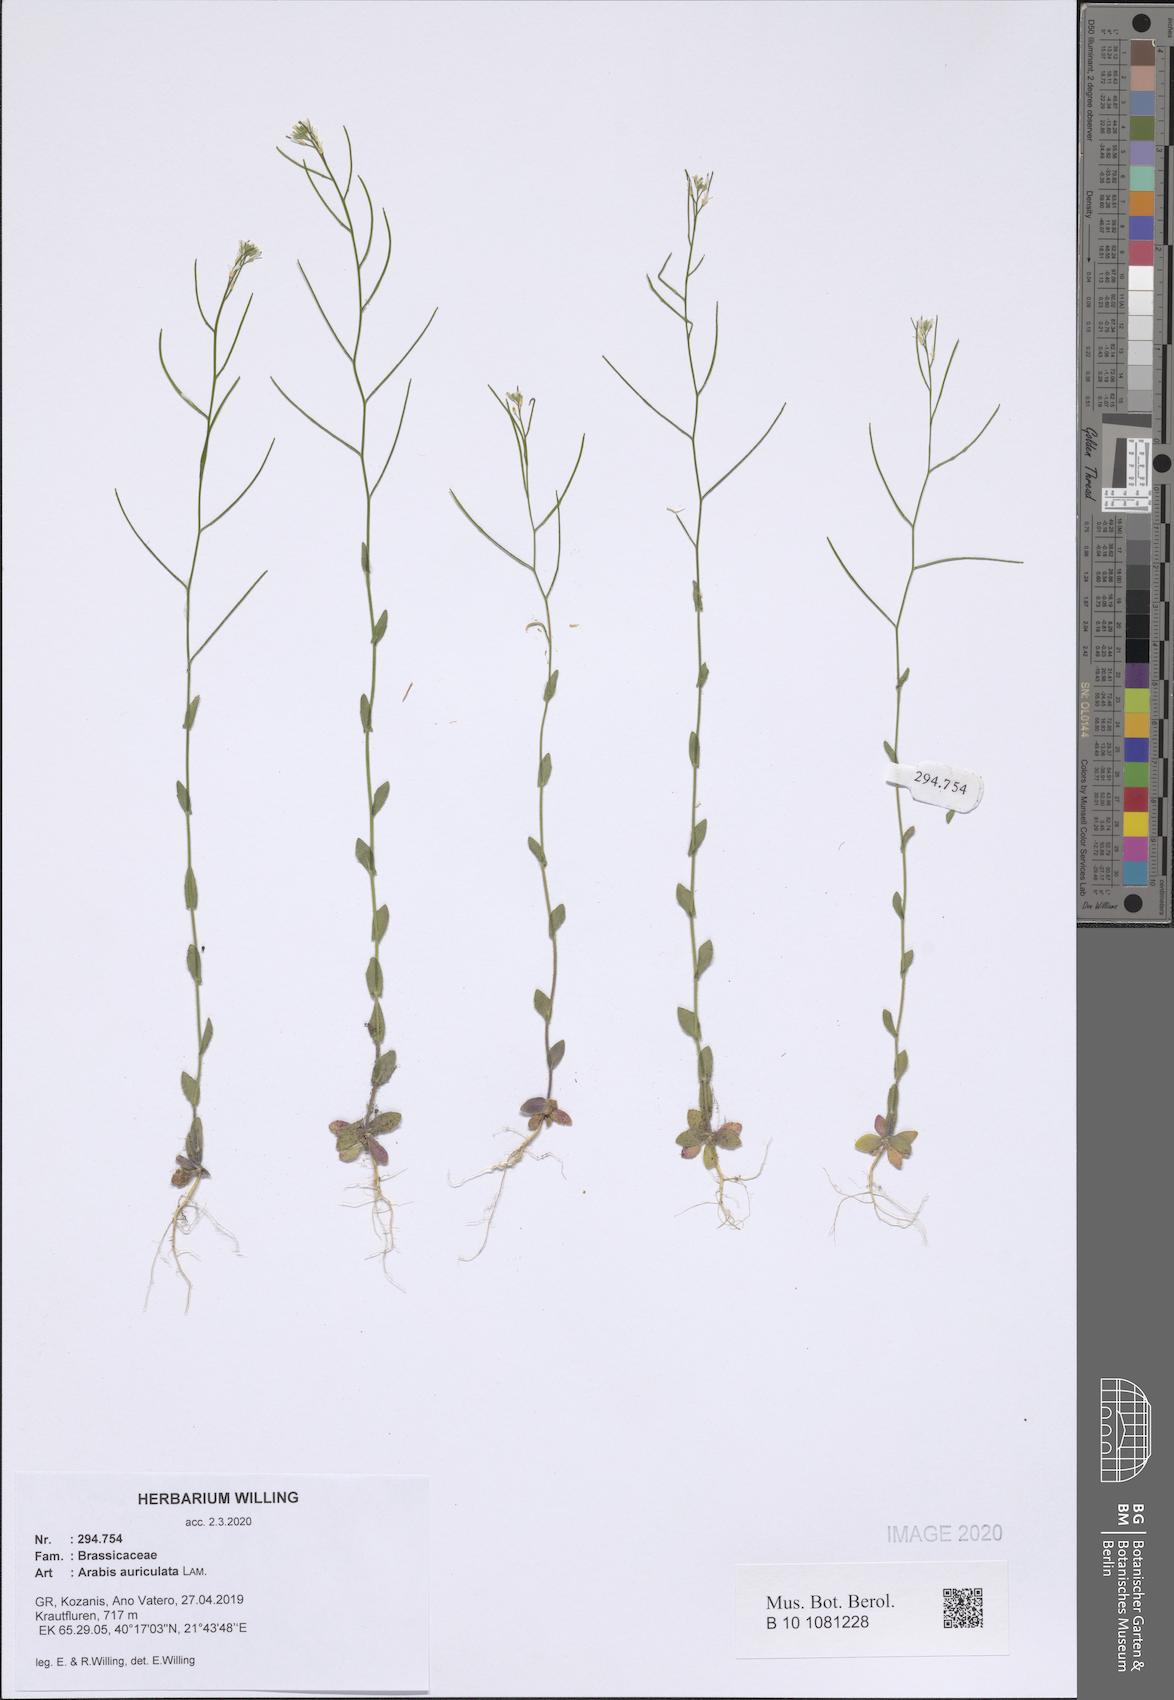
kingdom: Plantae
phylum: Tracheophyta
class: Magnoliopsida
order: Brassicales
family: Brassicaceae
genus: Arabis
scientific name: Arabis auriculata
